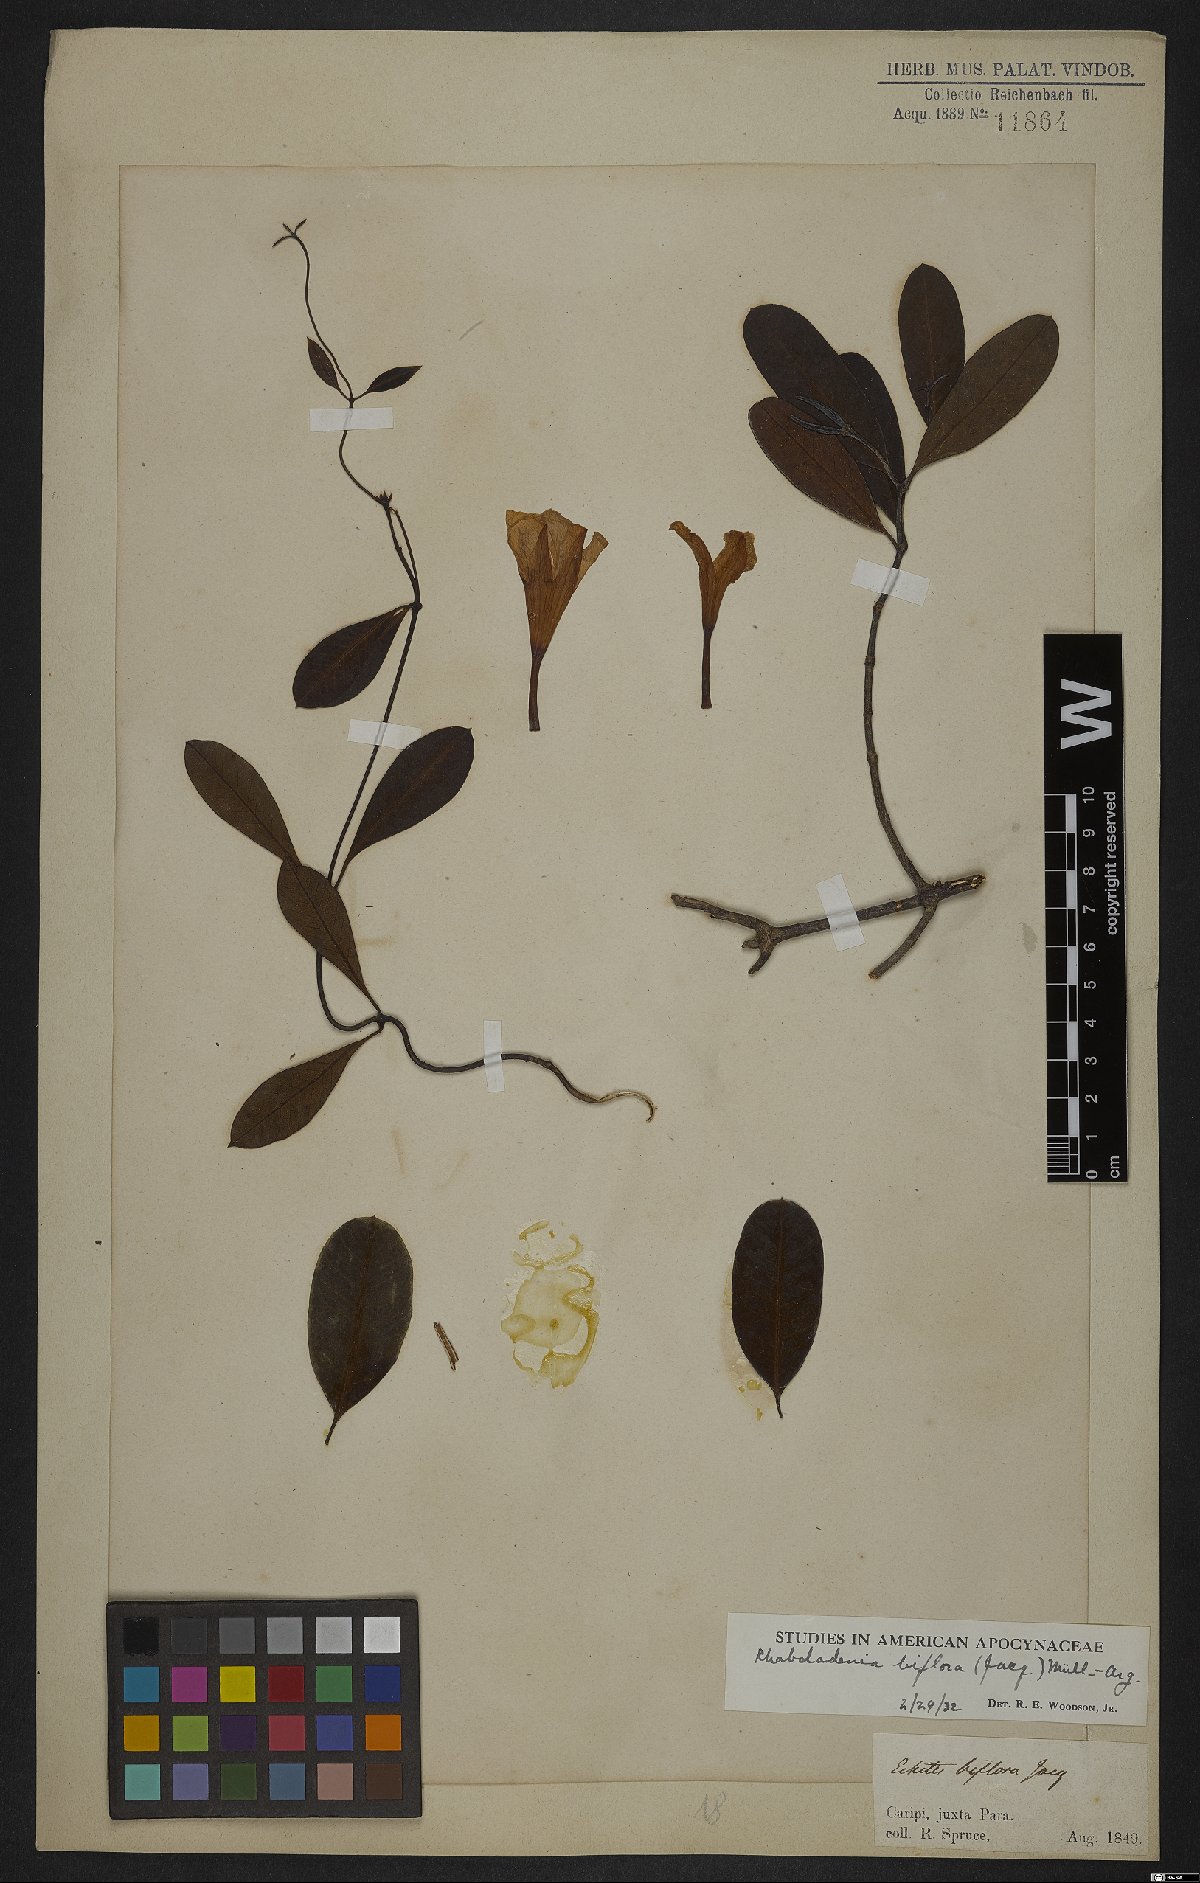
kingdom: Plantae
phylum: Tracheophyta
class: Magnoliopsida
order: Gentianales
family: Apocynaceae
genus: Rhabdadenia
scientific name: Rhabdadenia biflora
